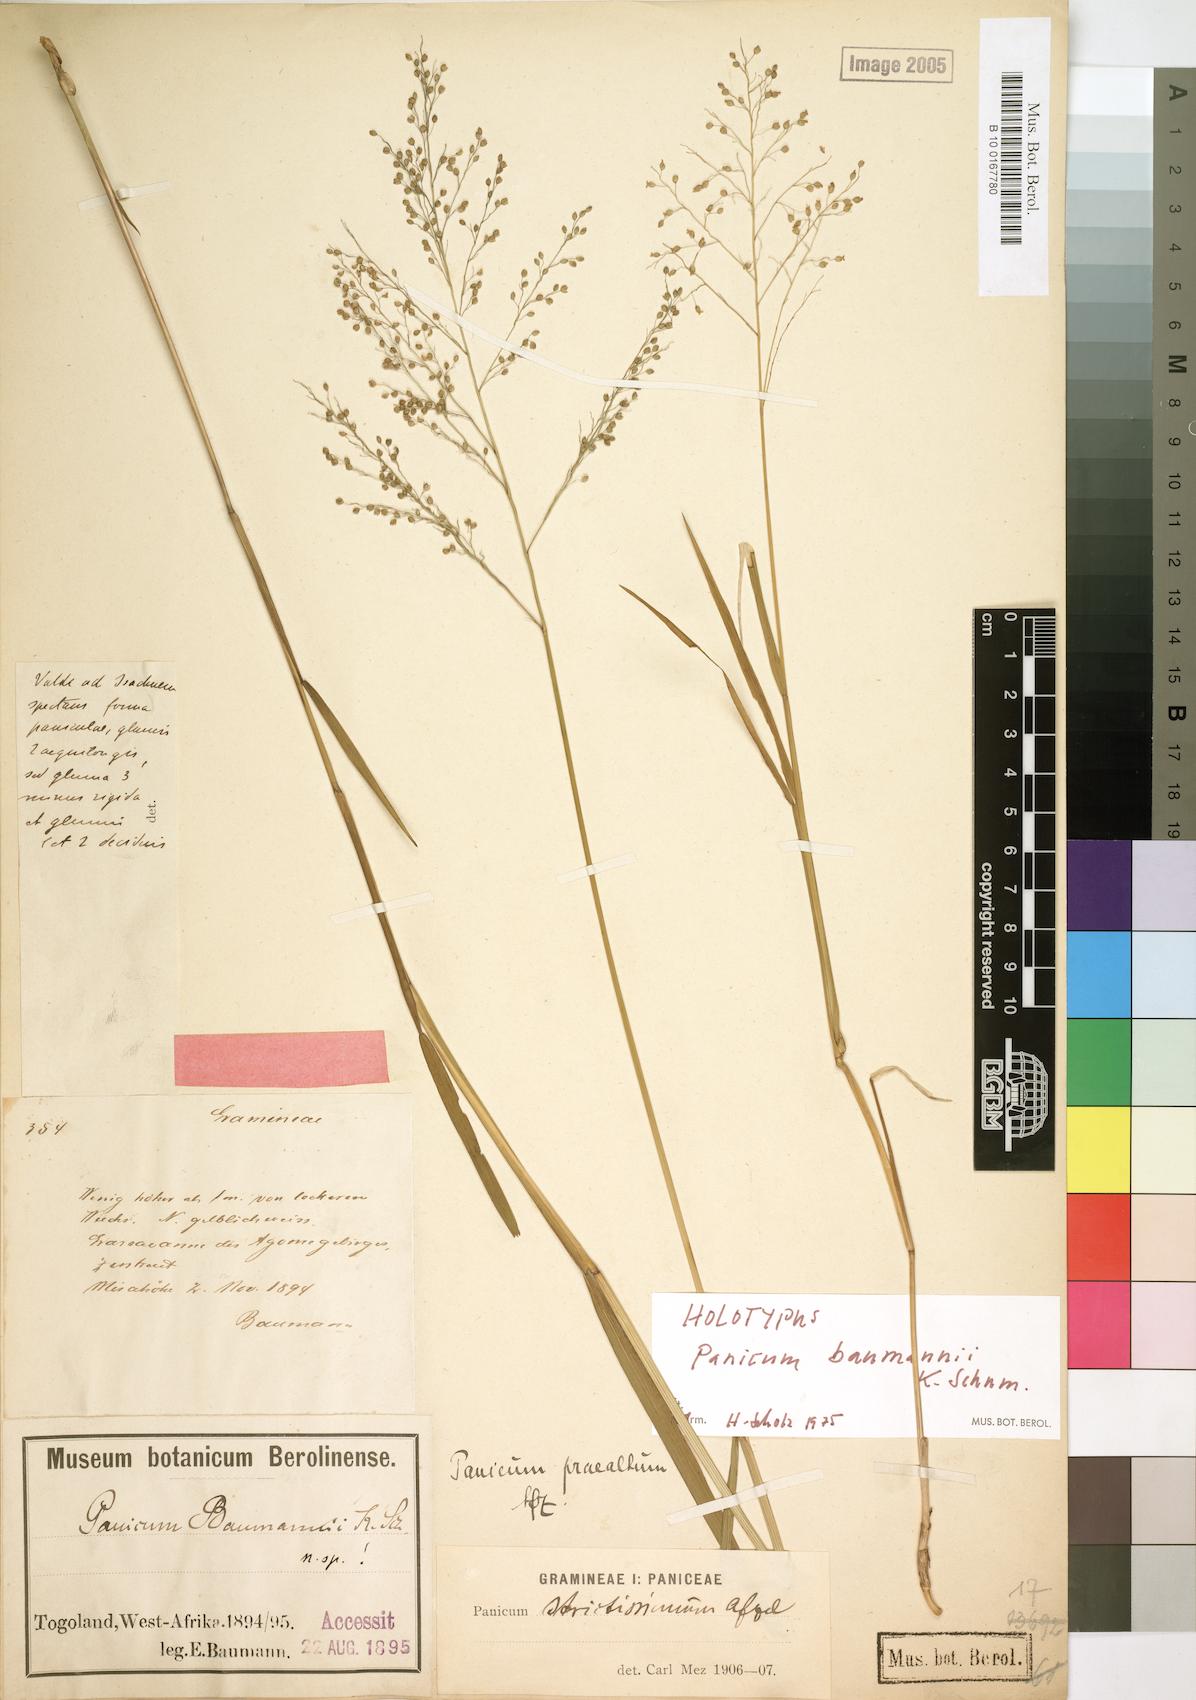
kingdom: Plantae
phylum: Tracheophyta
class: Liliopsida
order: Poales
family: Poaceae
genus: Trichanthecium
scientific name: Trichanthecium nervatum
